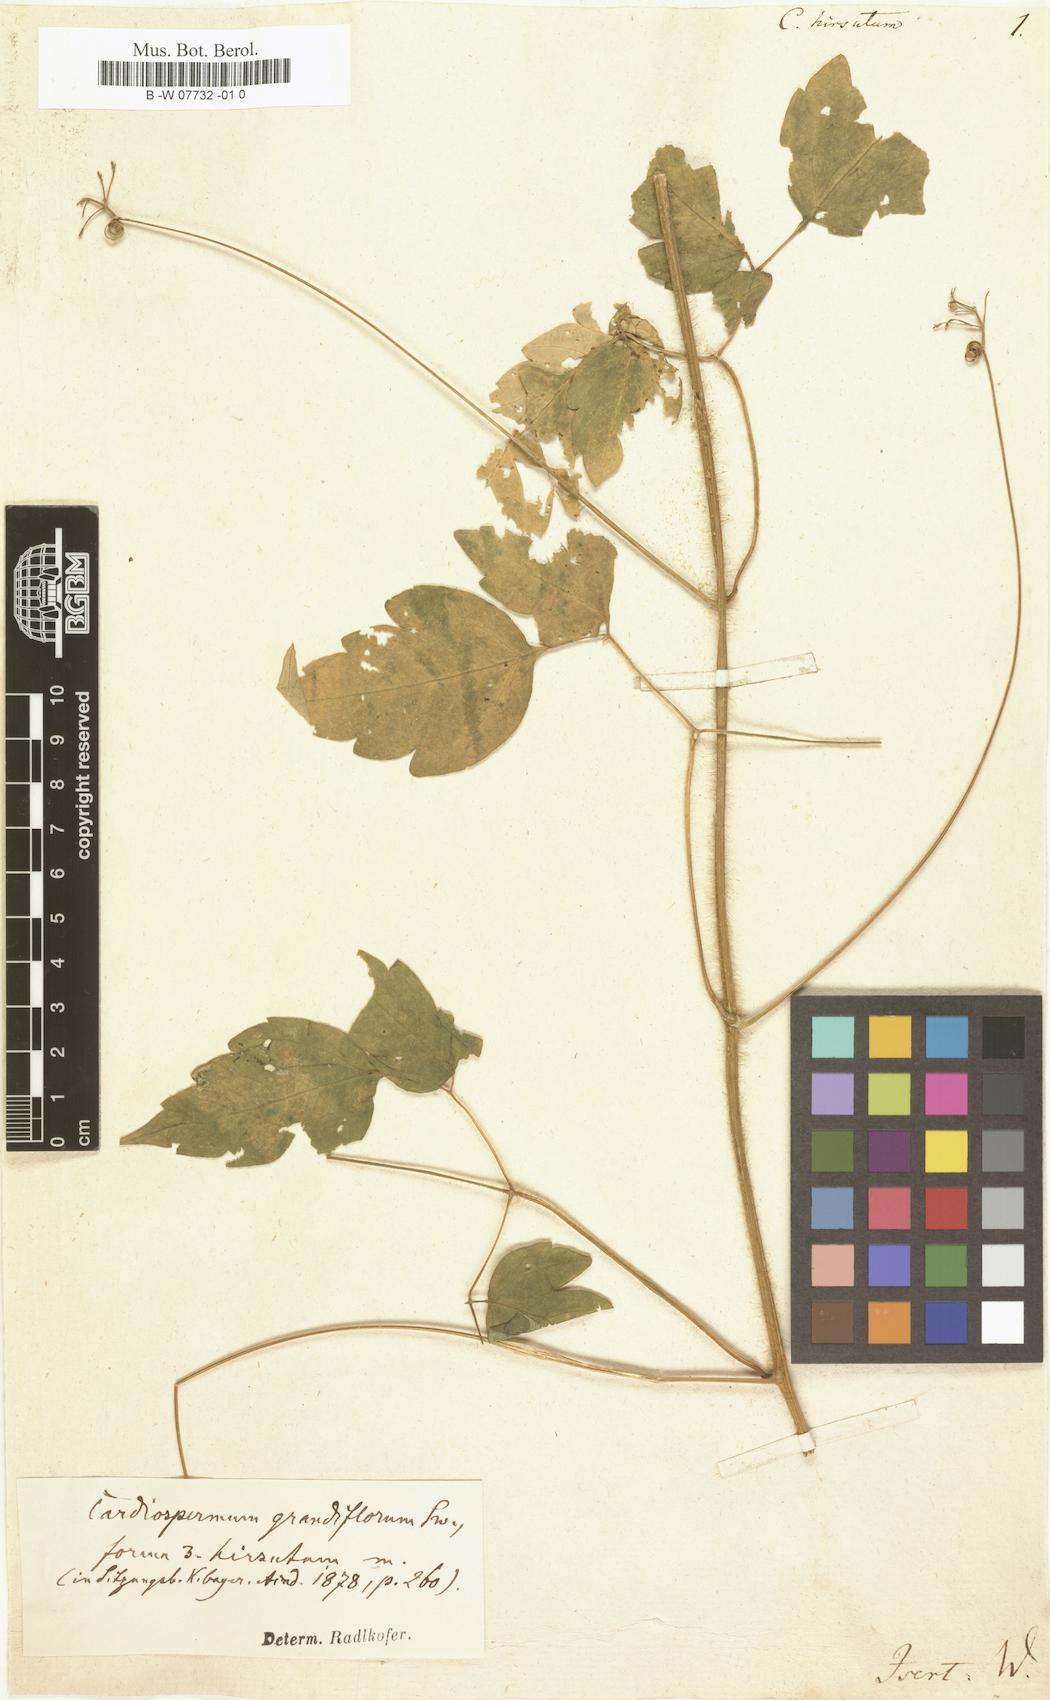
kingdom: Plantae
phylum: Tracheophyta
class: Magnoliopsida
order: Sapindales
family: Sapindaceae
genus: Cardiospermum
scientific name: Cardiospermum grandiflorum
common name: Balloon vine
